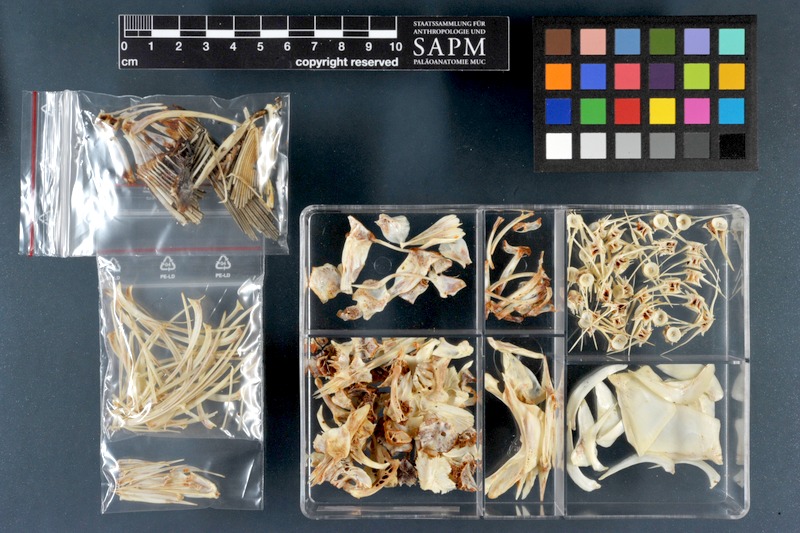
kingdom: Animalia
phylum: Chordata
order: Cypriniformes
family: Cyprinidae
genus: Mesopotamichthys
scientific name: Mesopotamichthys sharpeyi
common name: Binni
